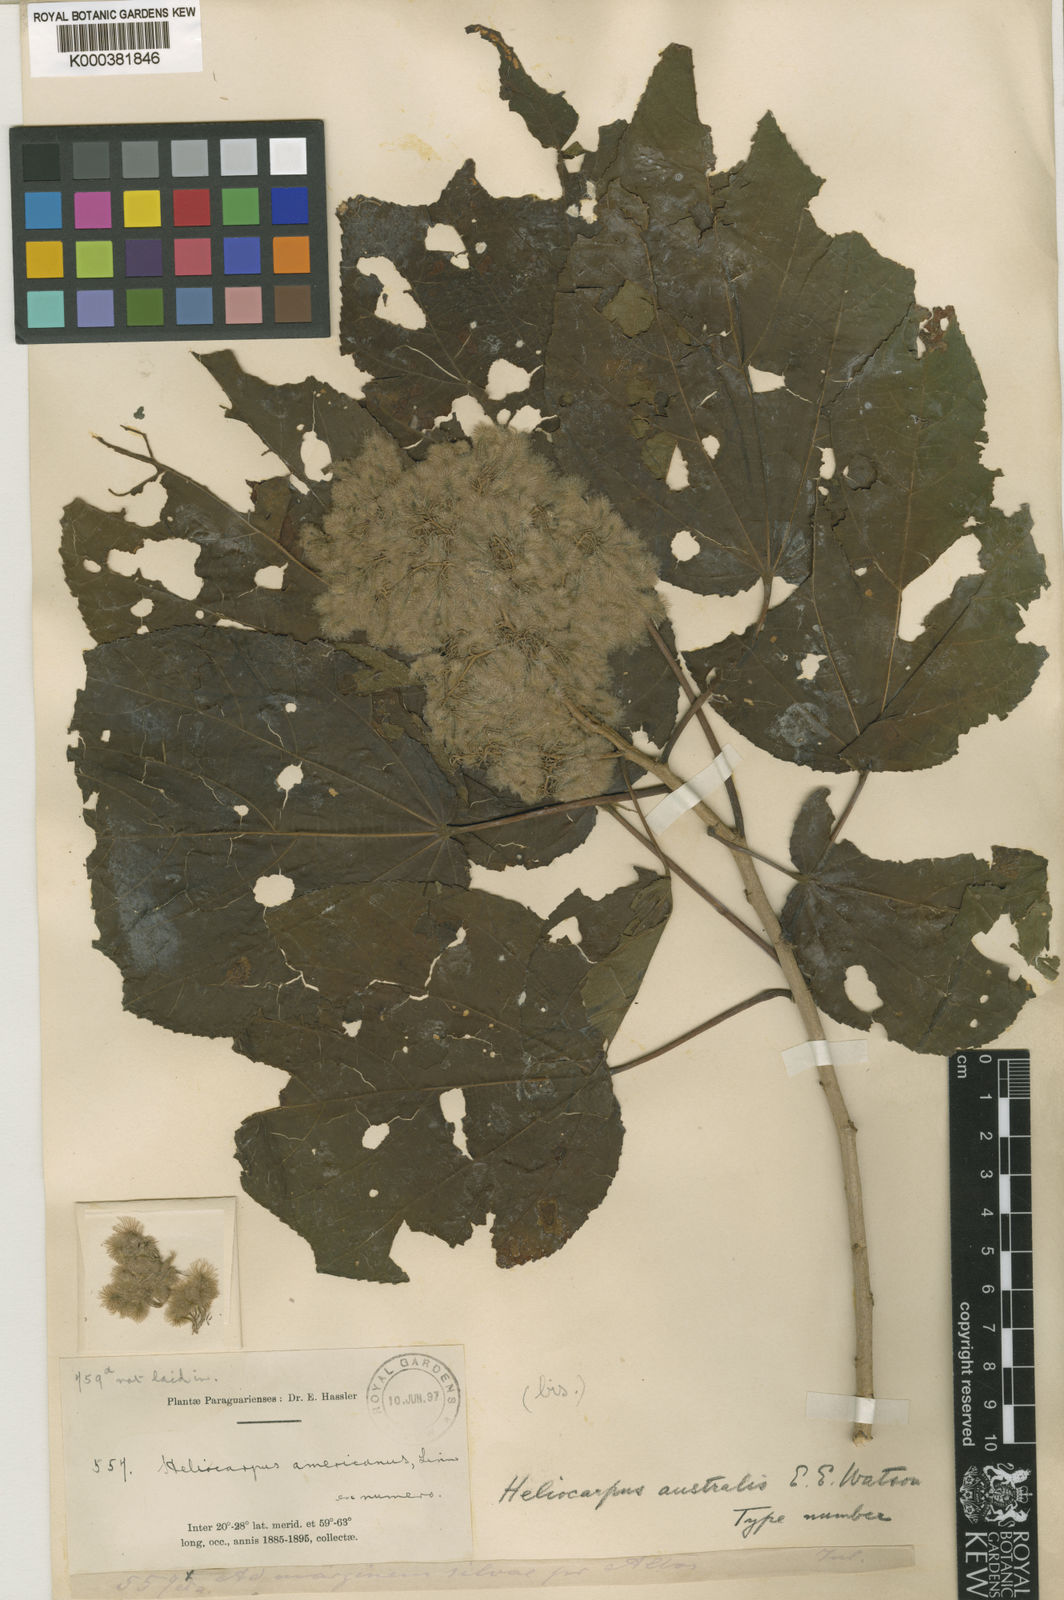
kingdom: Plantae
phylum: Tracheophyta
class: Magnoliopsida
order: Malvales
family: Malvaceae
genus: Heliocarpus
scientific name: Heliocarpus americanus
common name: White moho
